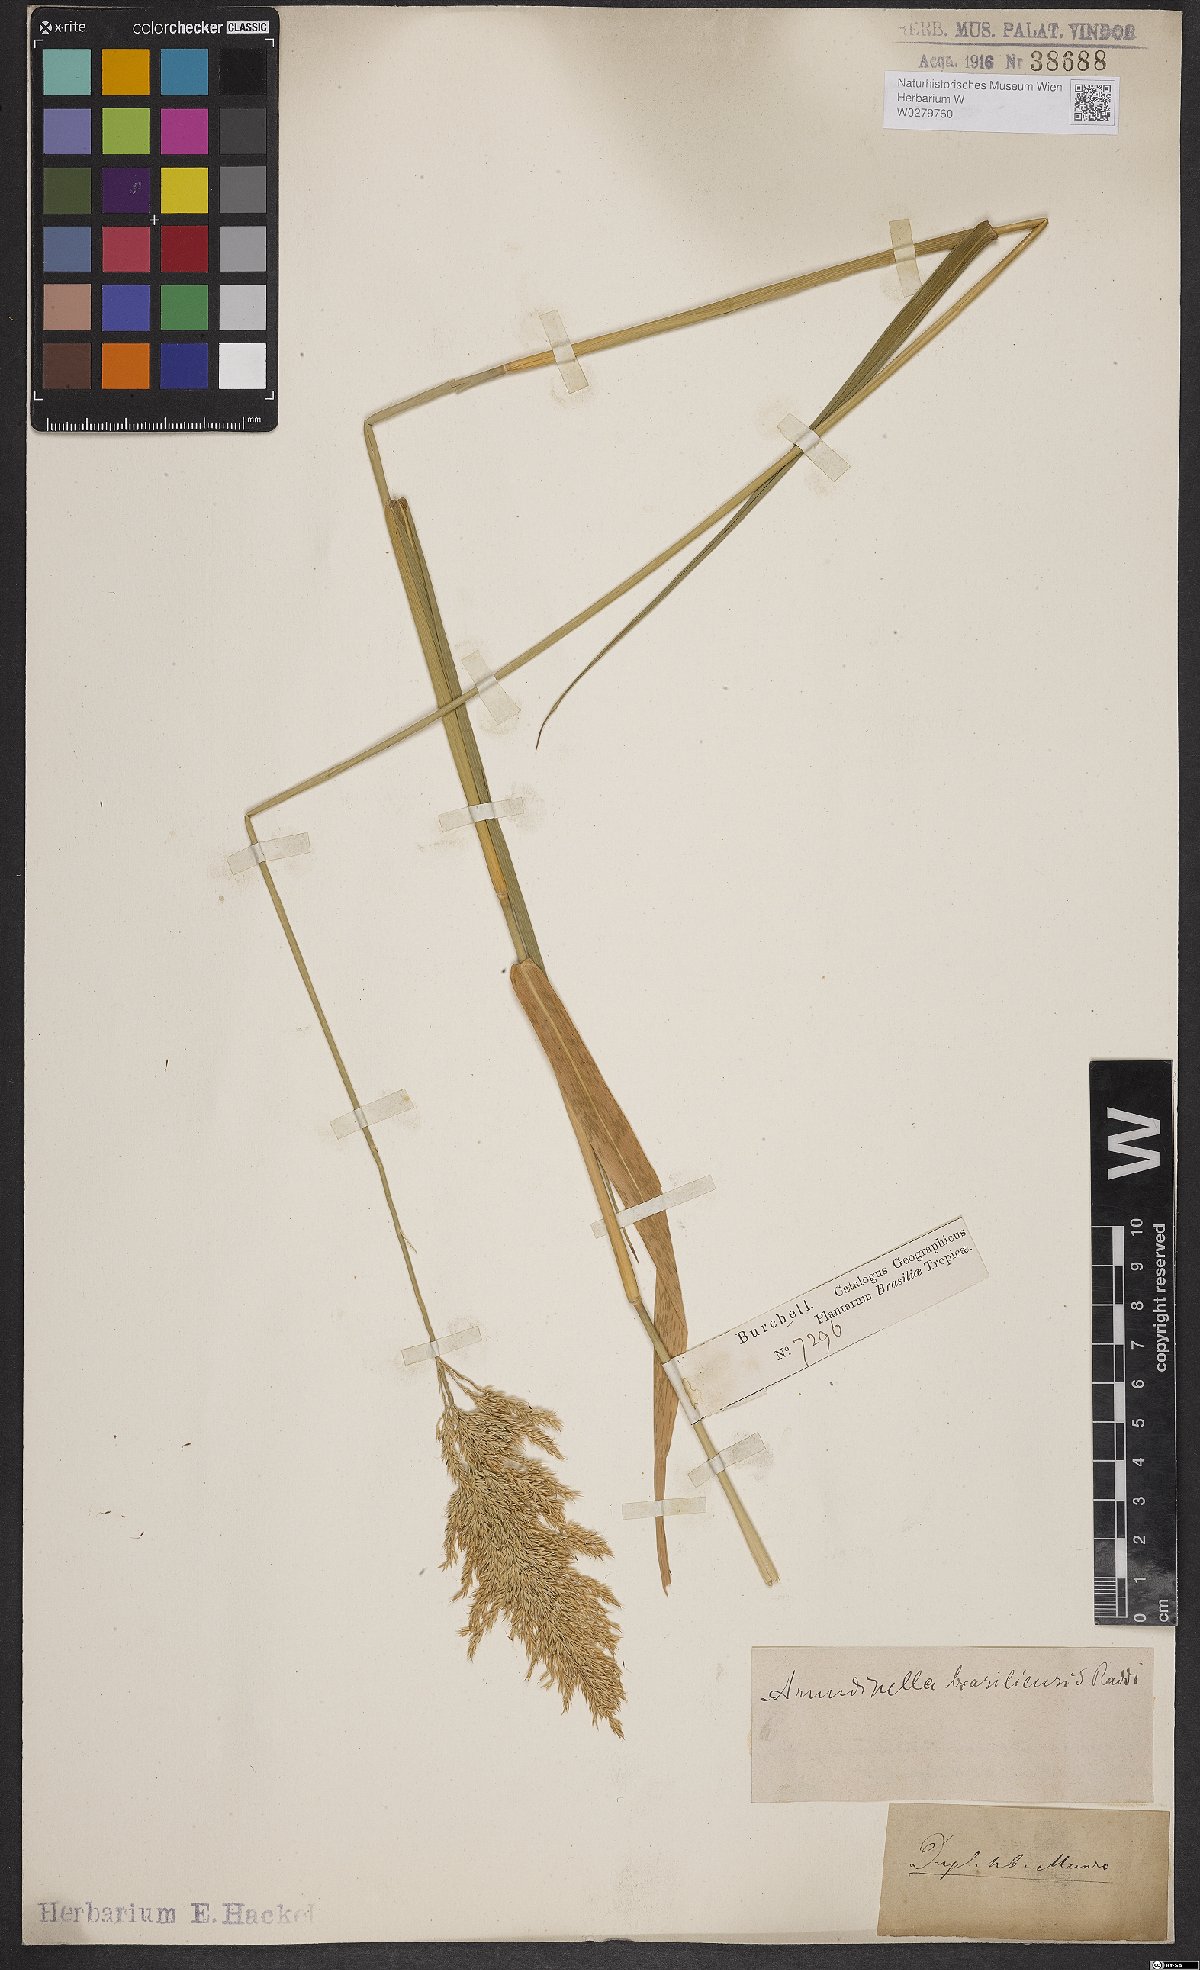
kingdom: Plantae
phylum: Tracheophyta
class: Liliopsida
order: Poales
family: Poaceae
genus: Arundinella
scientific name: Arundinella hispida
